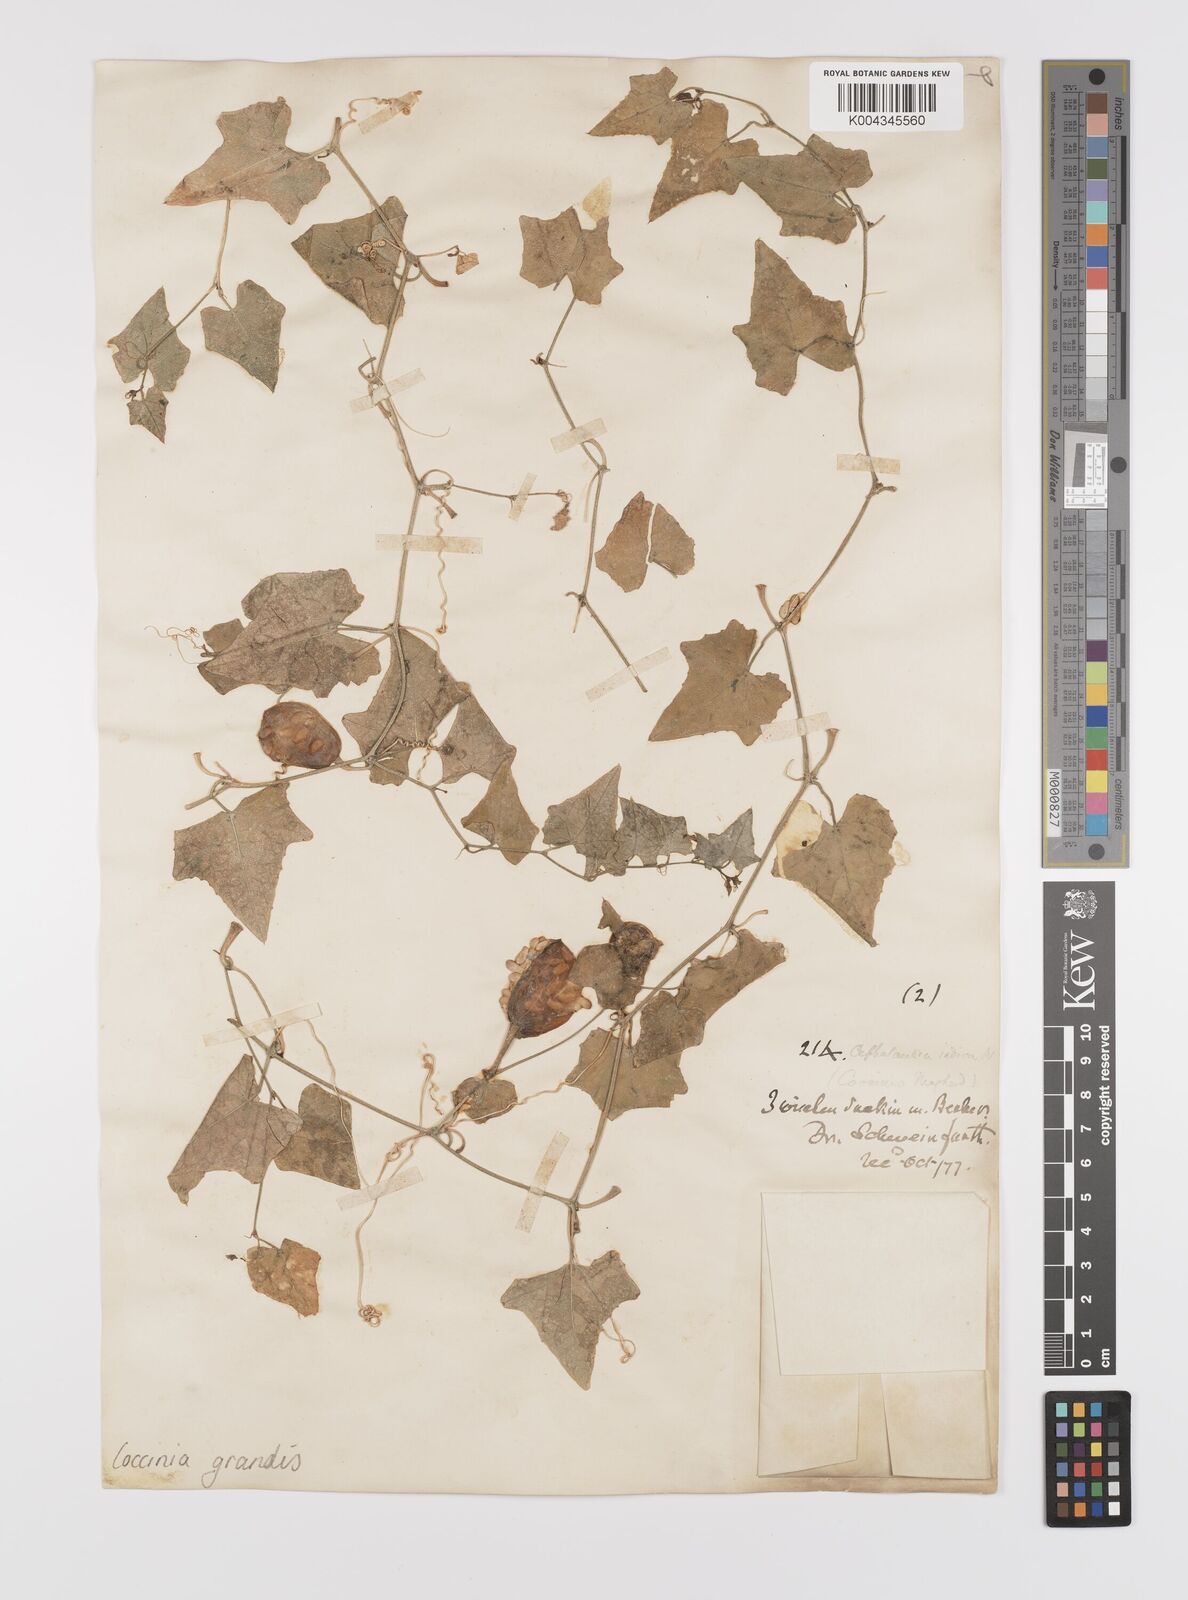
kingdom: Plantae
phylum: Tracheophyta
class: Magnoliopsida
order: Cucurbitales
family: Cucurbitaceae
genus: Coccinia
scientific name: Coccinia grandis
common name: Ivy gourd
